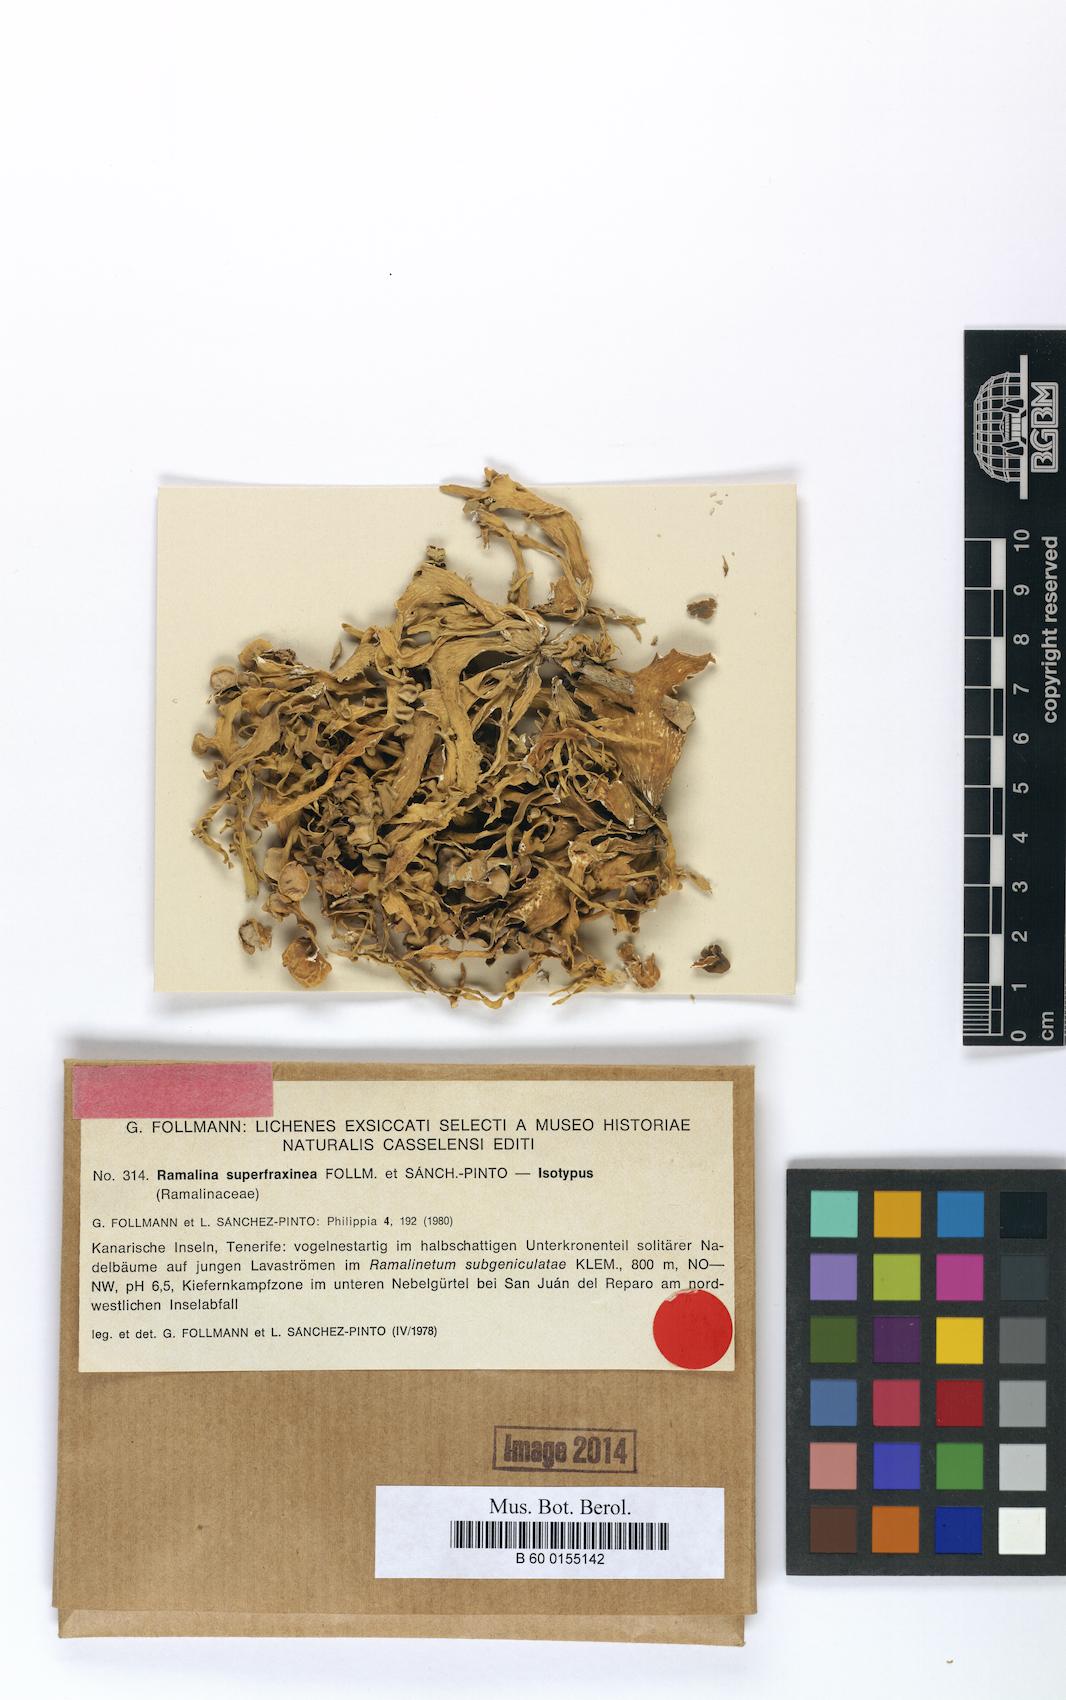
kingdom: Fungi
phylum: Ascomycota
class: Lecanoromycetes
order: Lecanorales
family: Ramalinaceae
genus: Ramalina
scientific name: Ramalina superfraxinea
